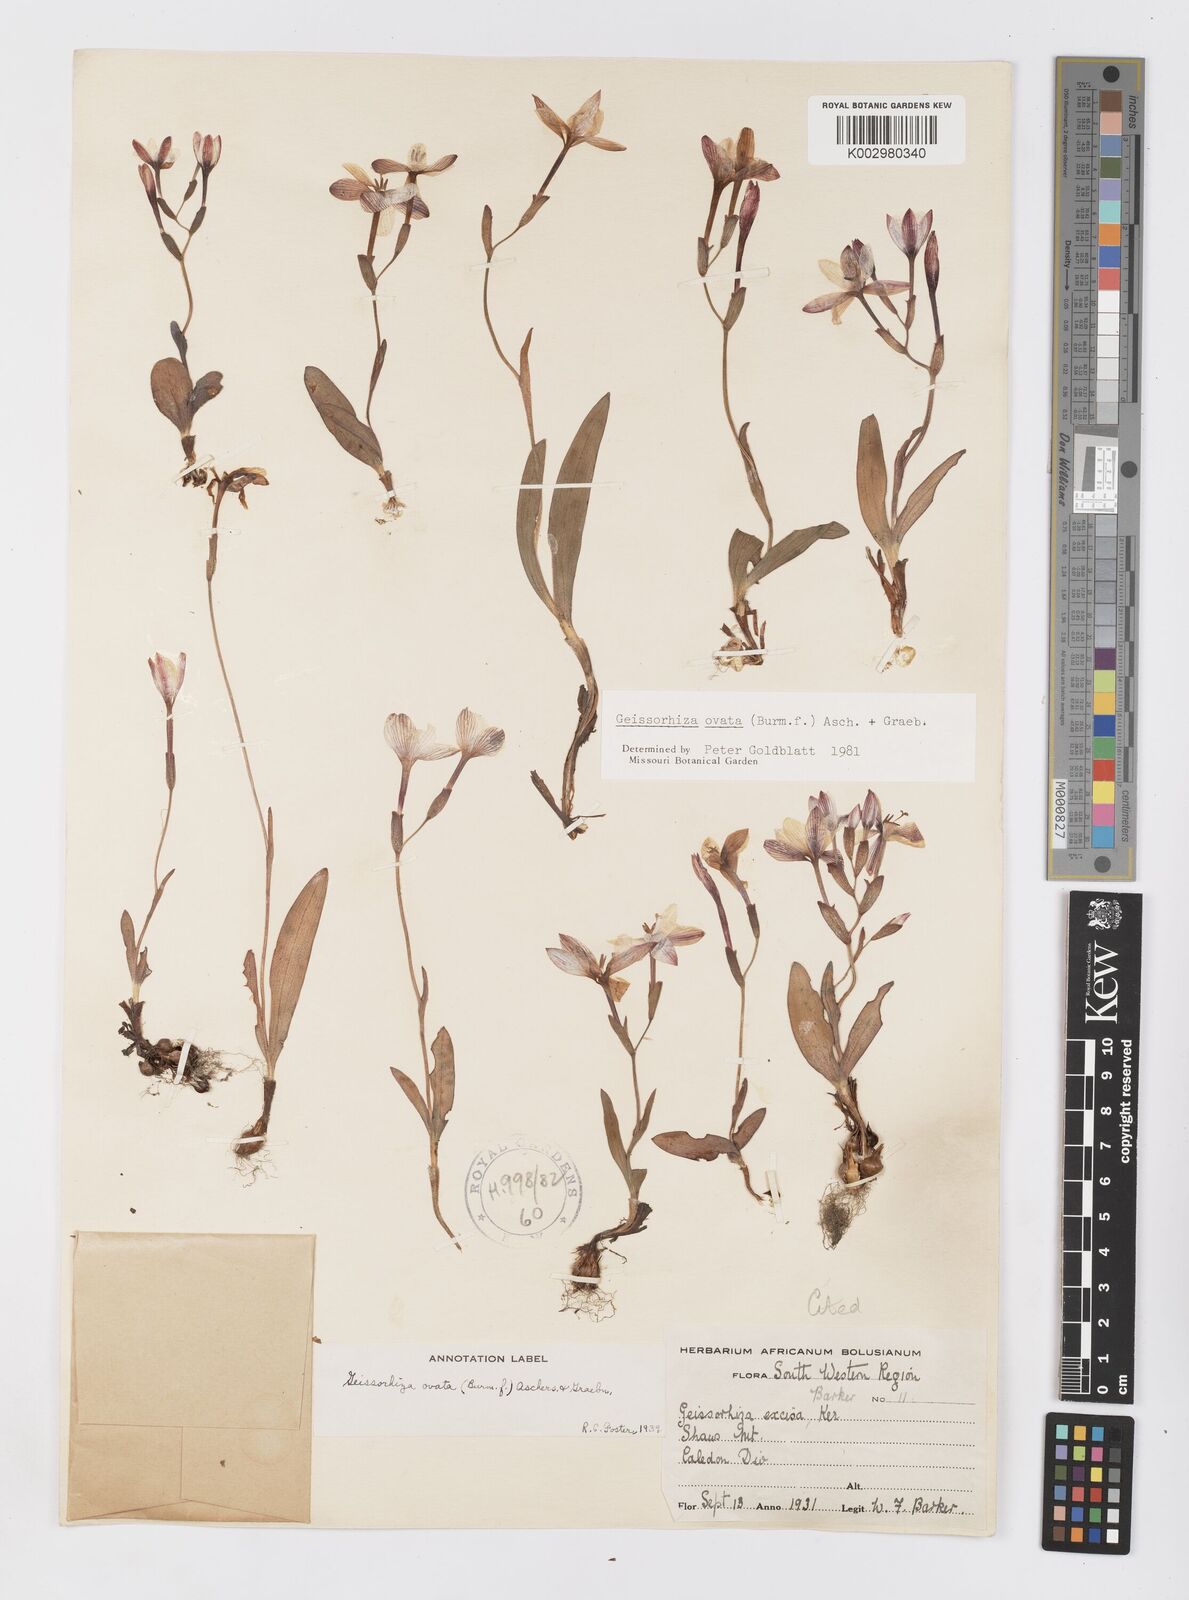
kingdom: Plantae
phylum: Tracheophyta
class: Liliopsida
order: Asparagales
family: Iridaceae
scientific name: Iridaceae
